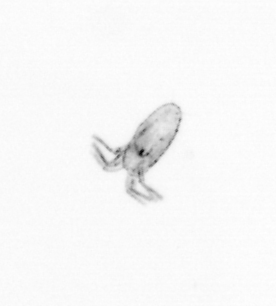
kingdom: Animalia
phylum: Arthropoda
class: Copepoda
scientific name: Copepoda
